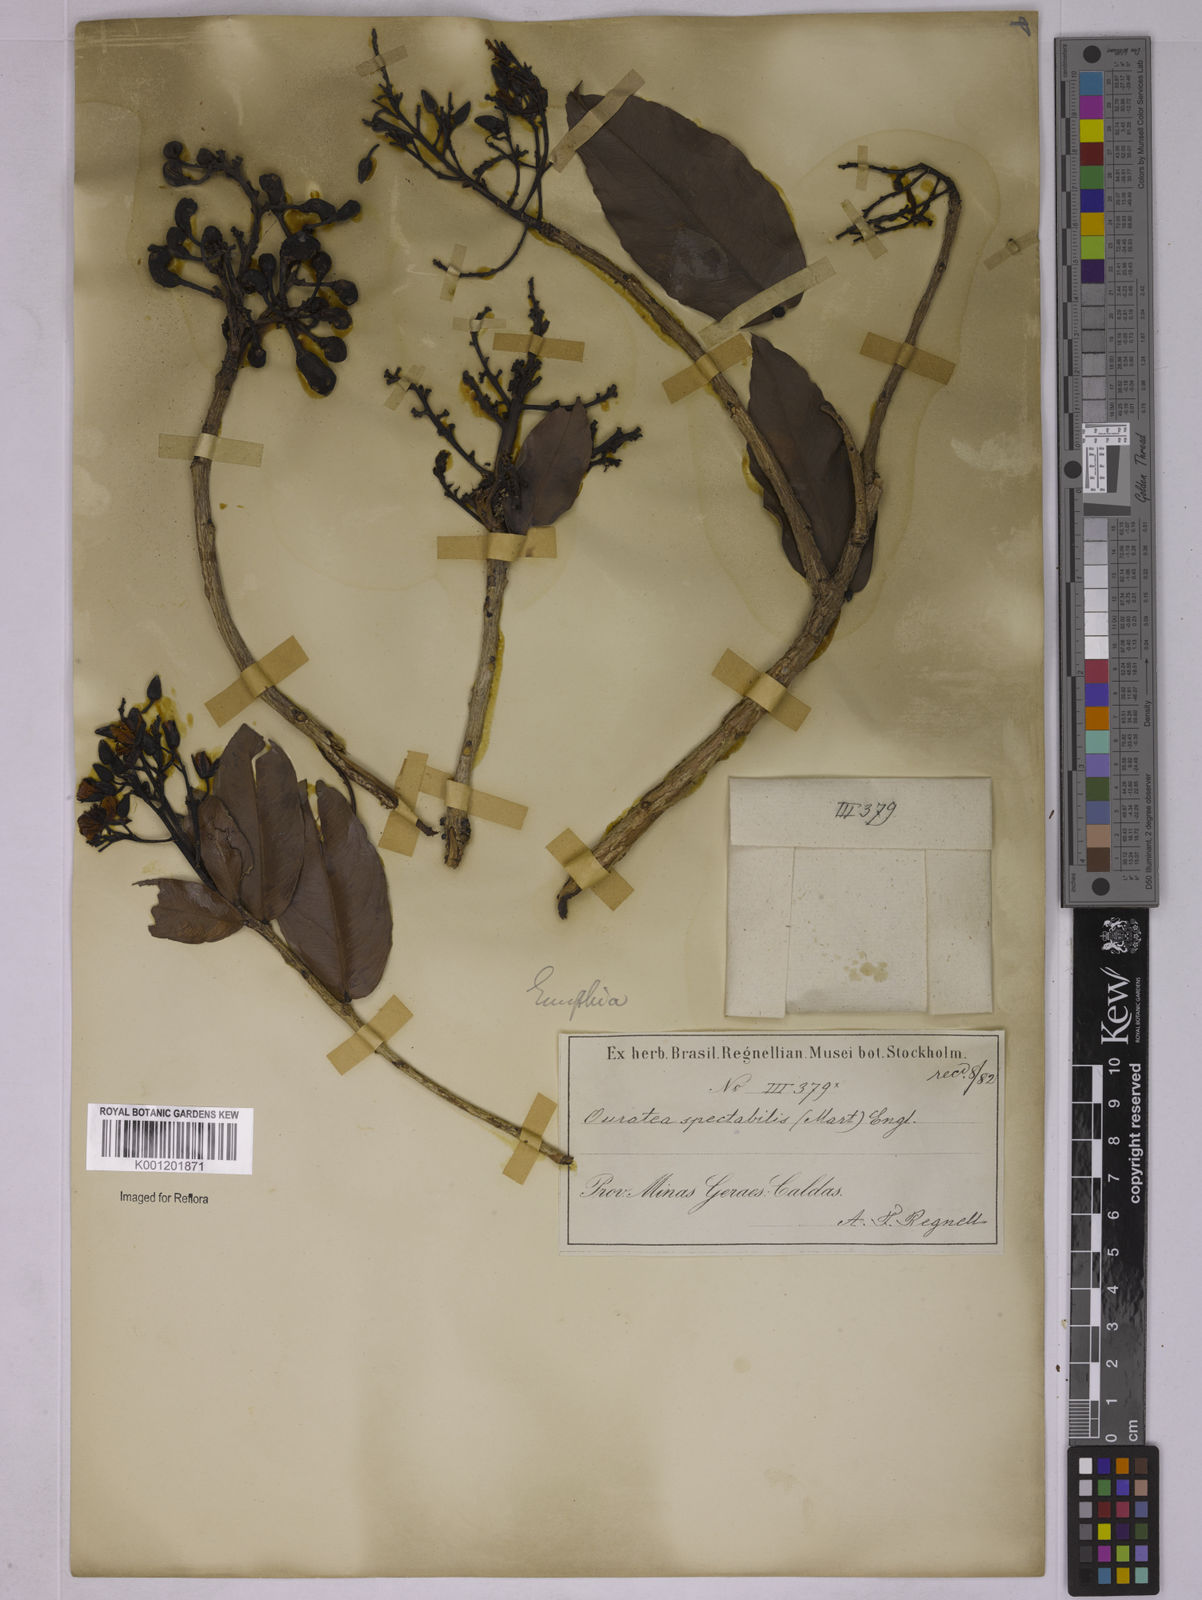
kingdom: Plantae
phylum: Tracheophyta
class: Magnoliopsida
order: Malpighiales
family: Ochnaceae
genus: Ouratea
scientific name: Ouratea spectabilis
